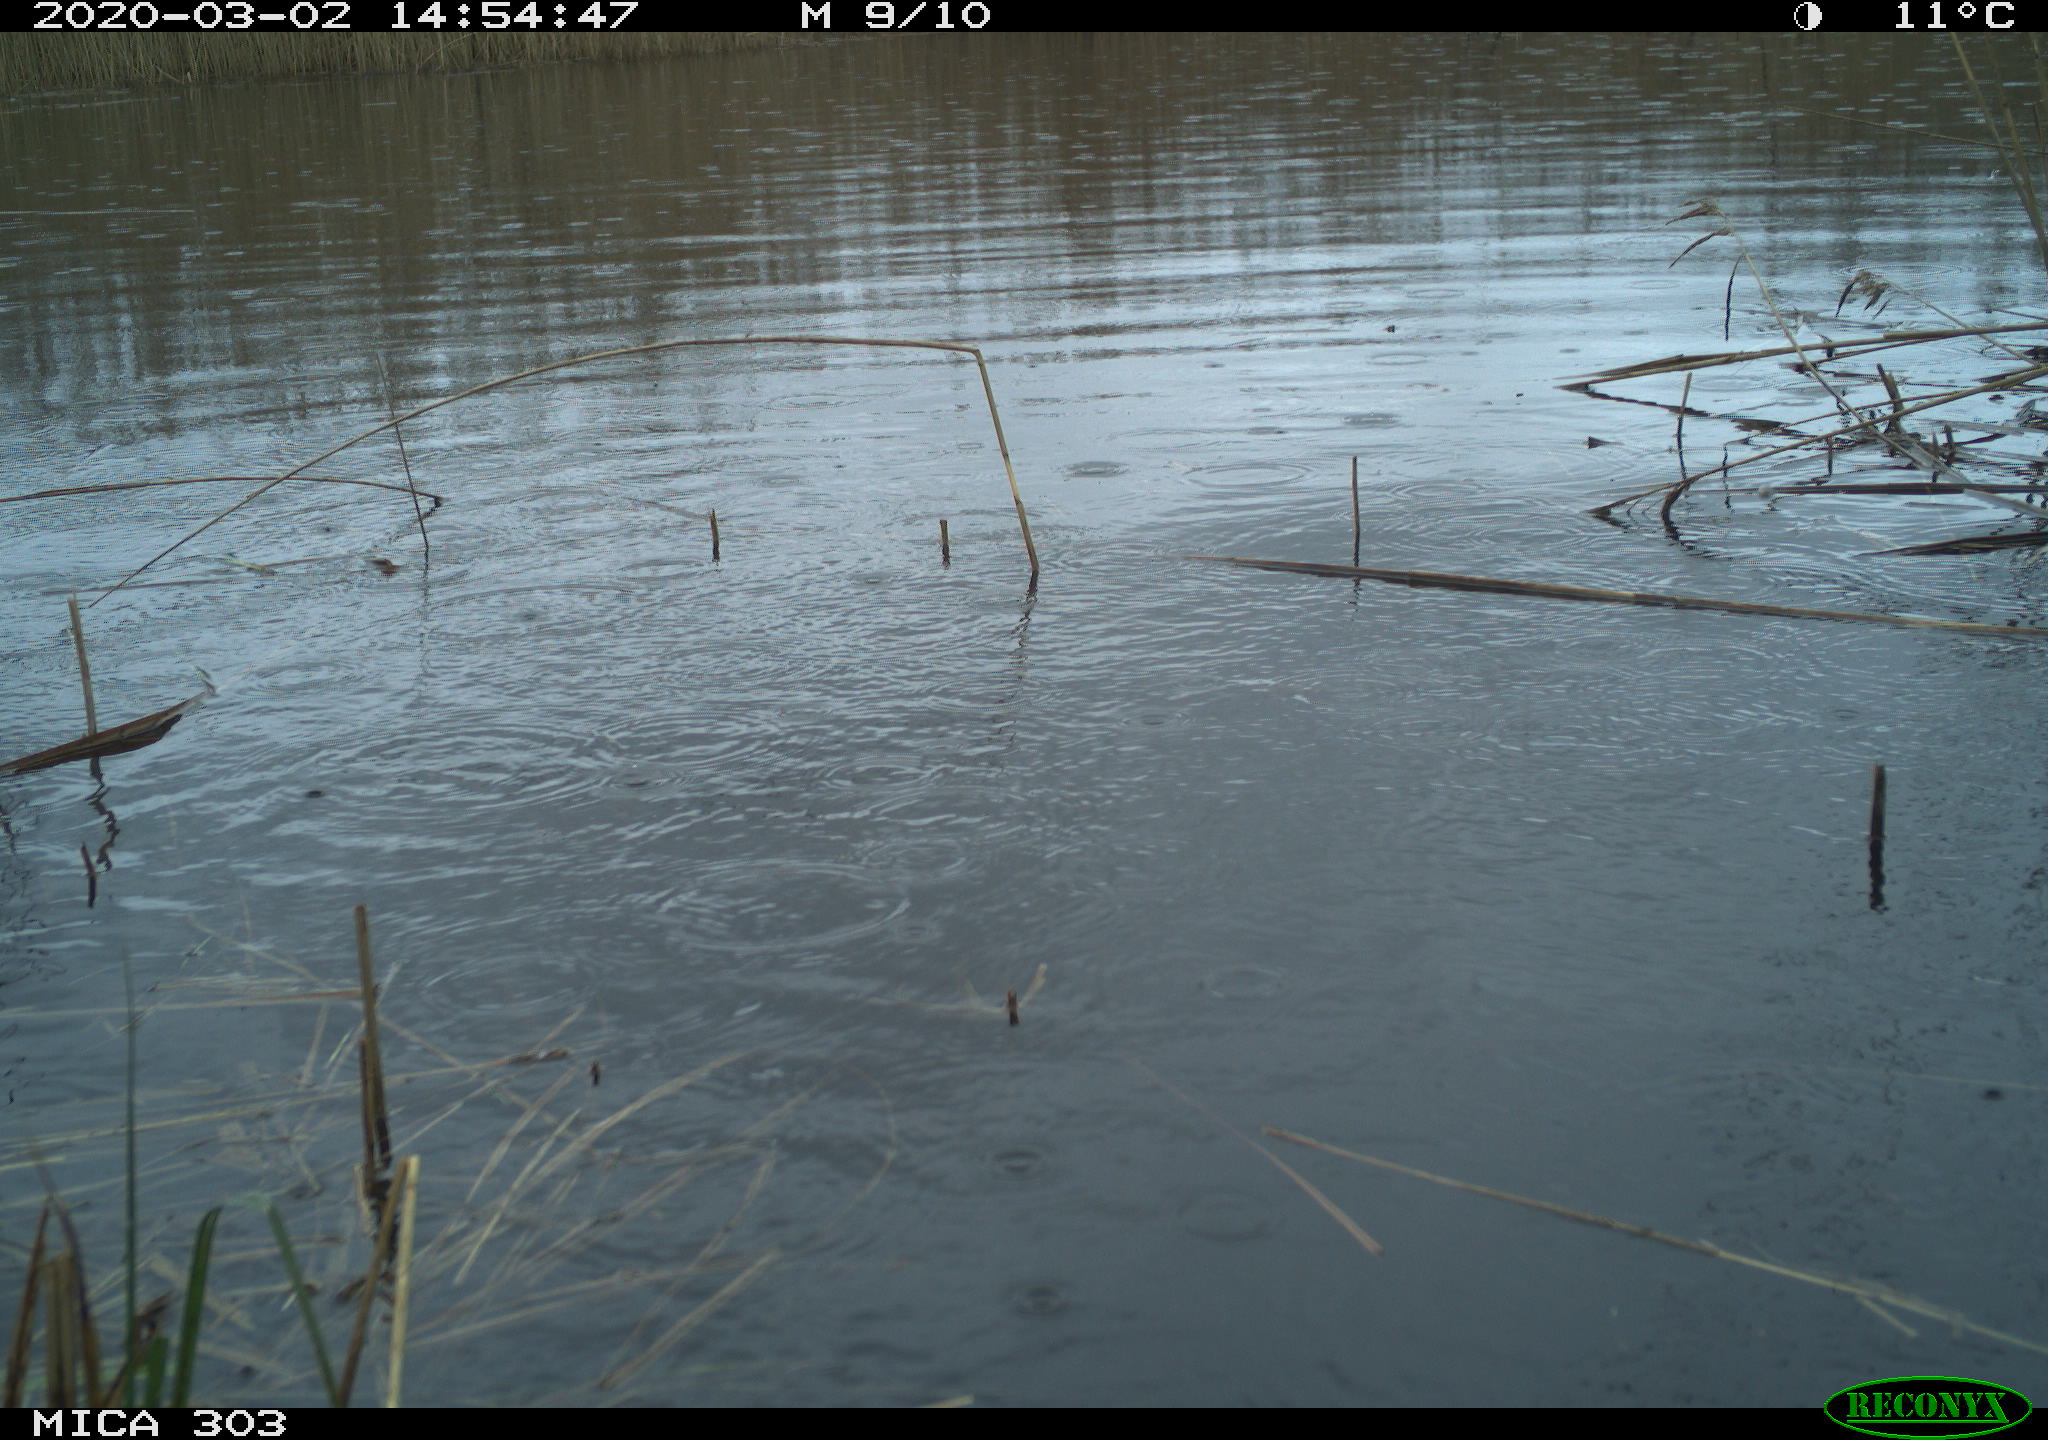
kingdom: Animalia
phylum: Chordata
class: Aves
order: Anseriformes
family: Anatidae
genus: Anser
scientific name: Anser anser
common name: Greylag goose
